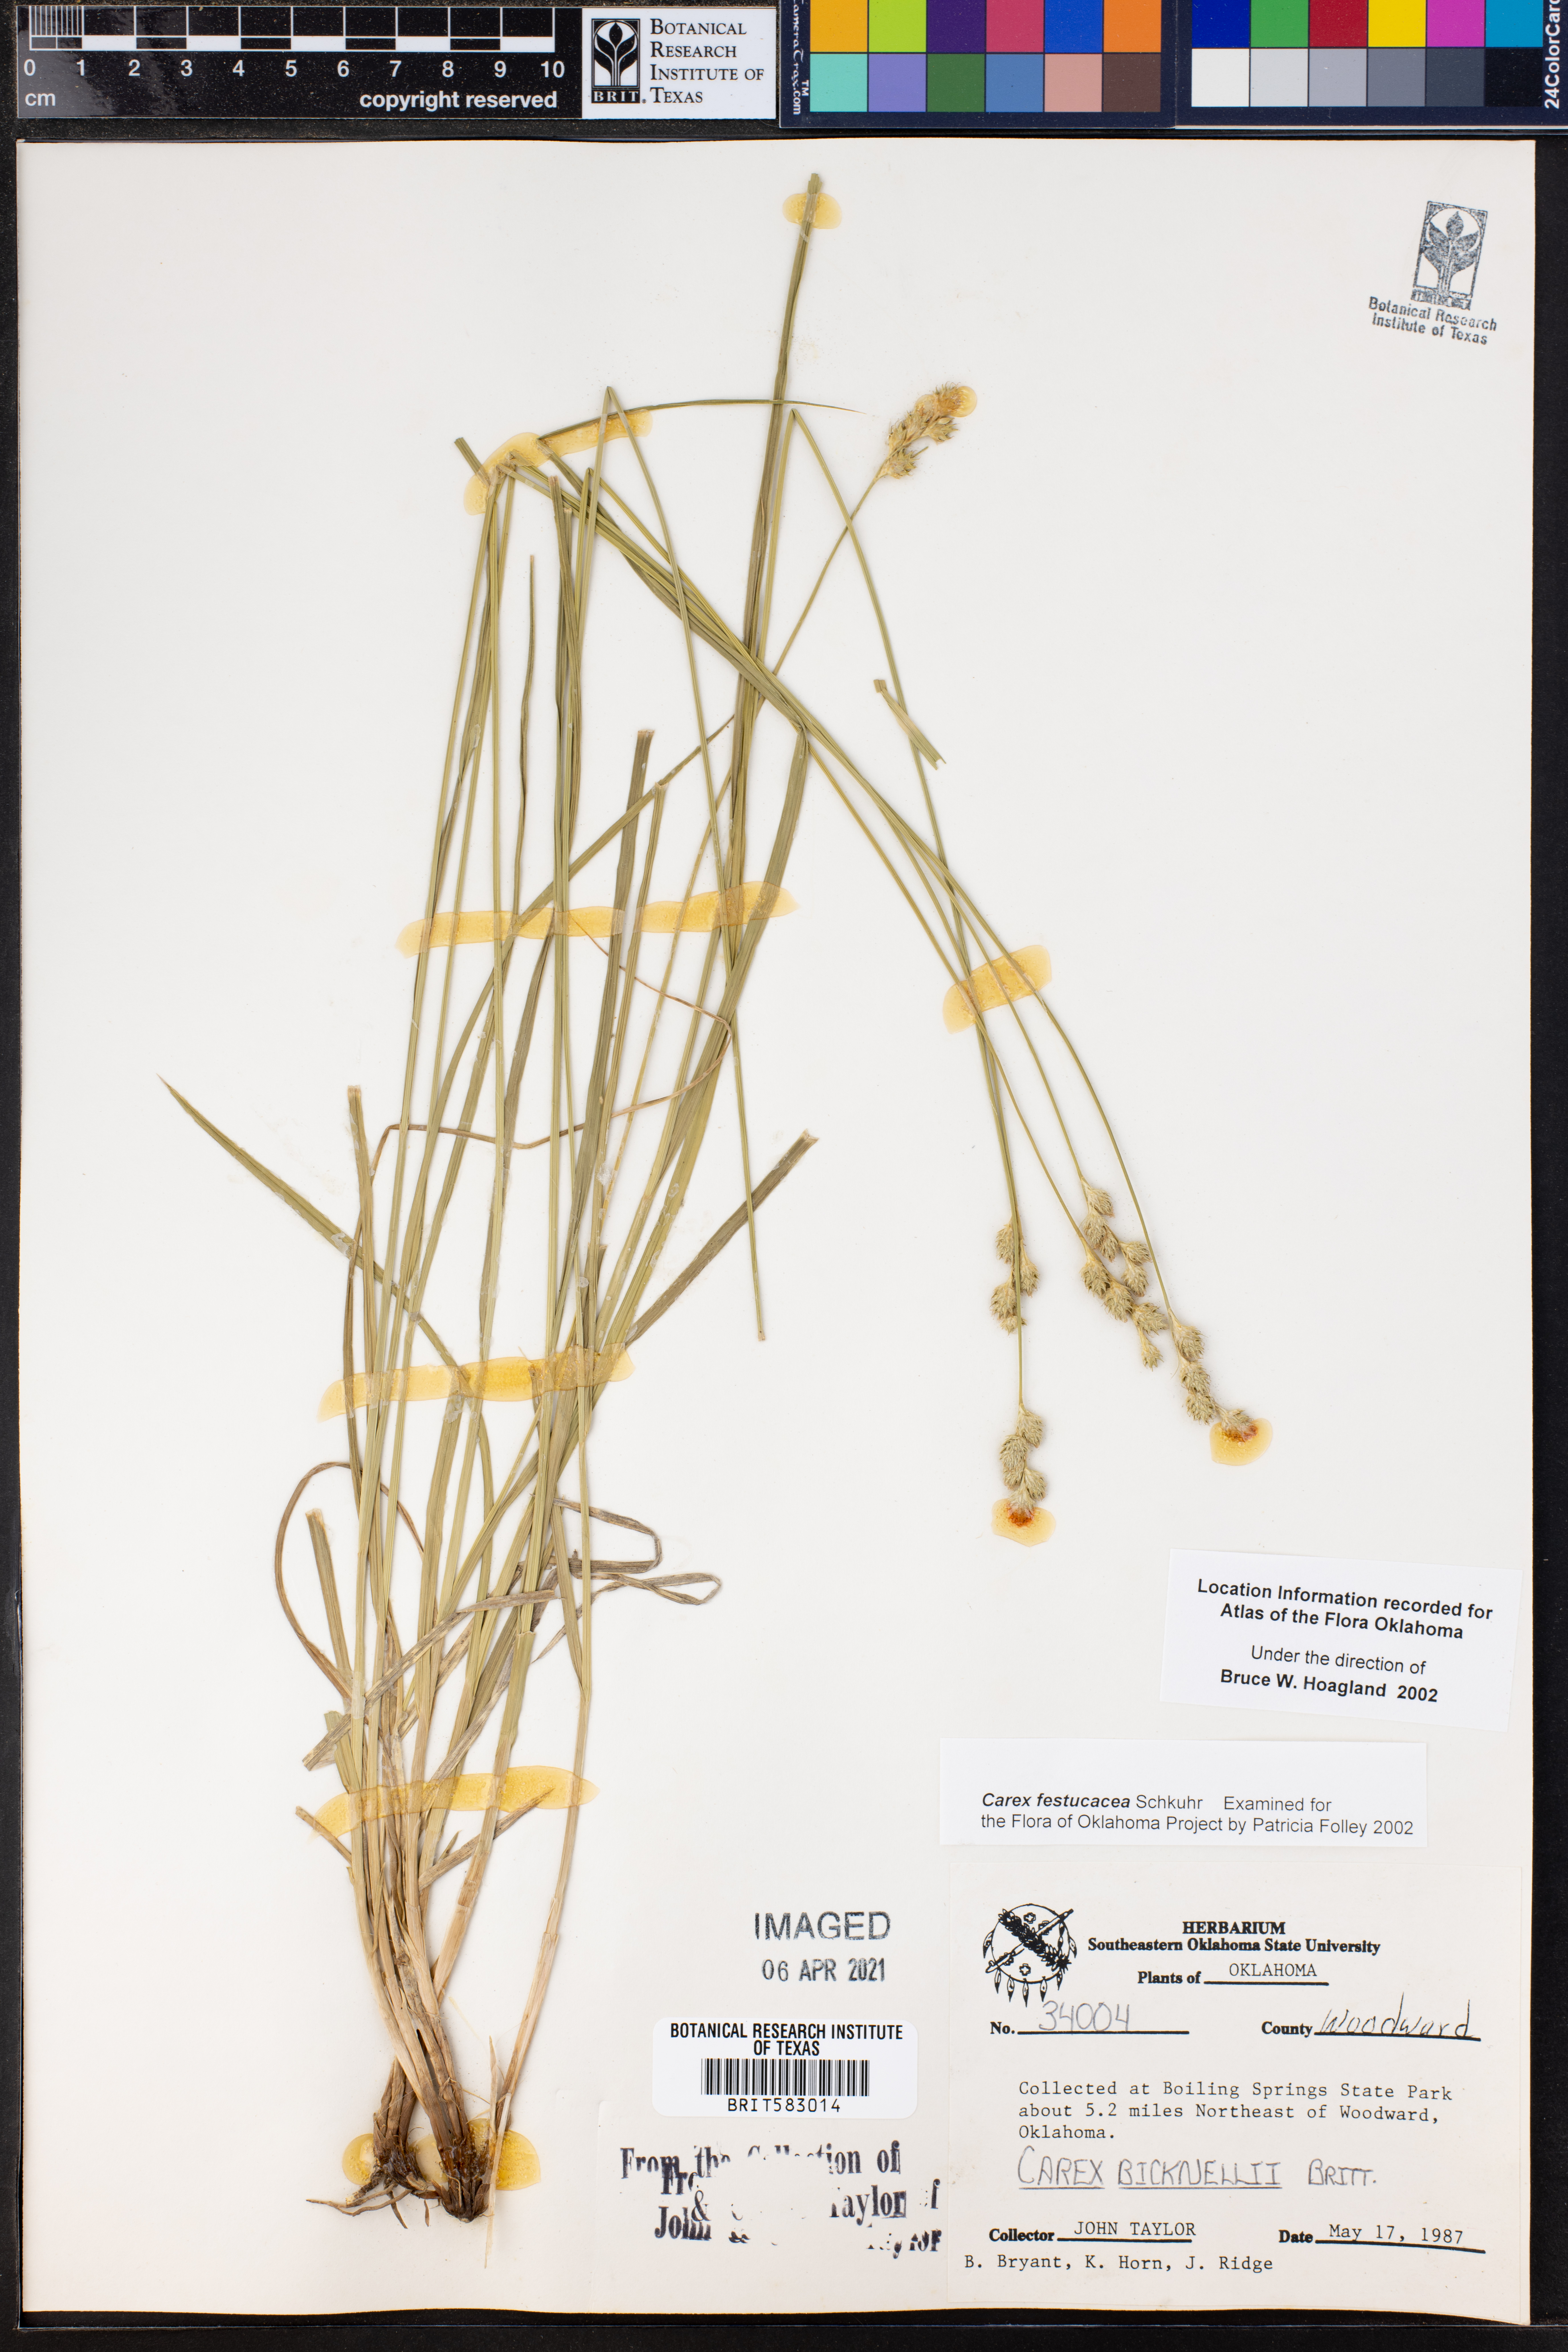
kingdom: Plantae
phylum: Tracheophyta
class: Liliopsida
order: Poales
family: Cyperaceae
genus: Carex
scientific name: Carex festucacea
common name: Fescue oval sedge
